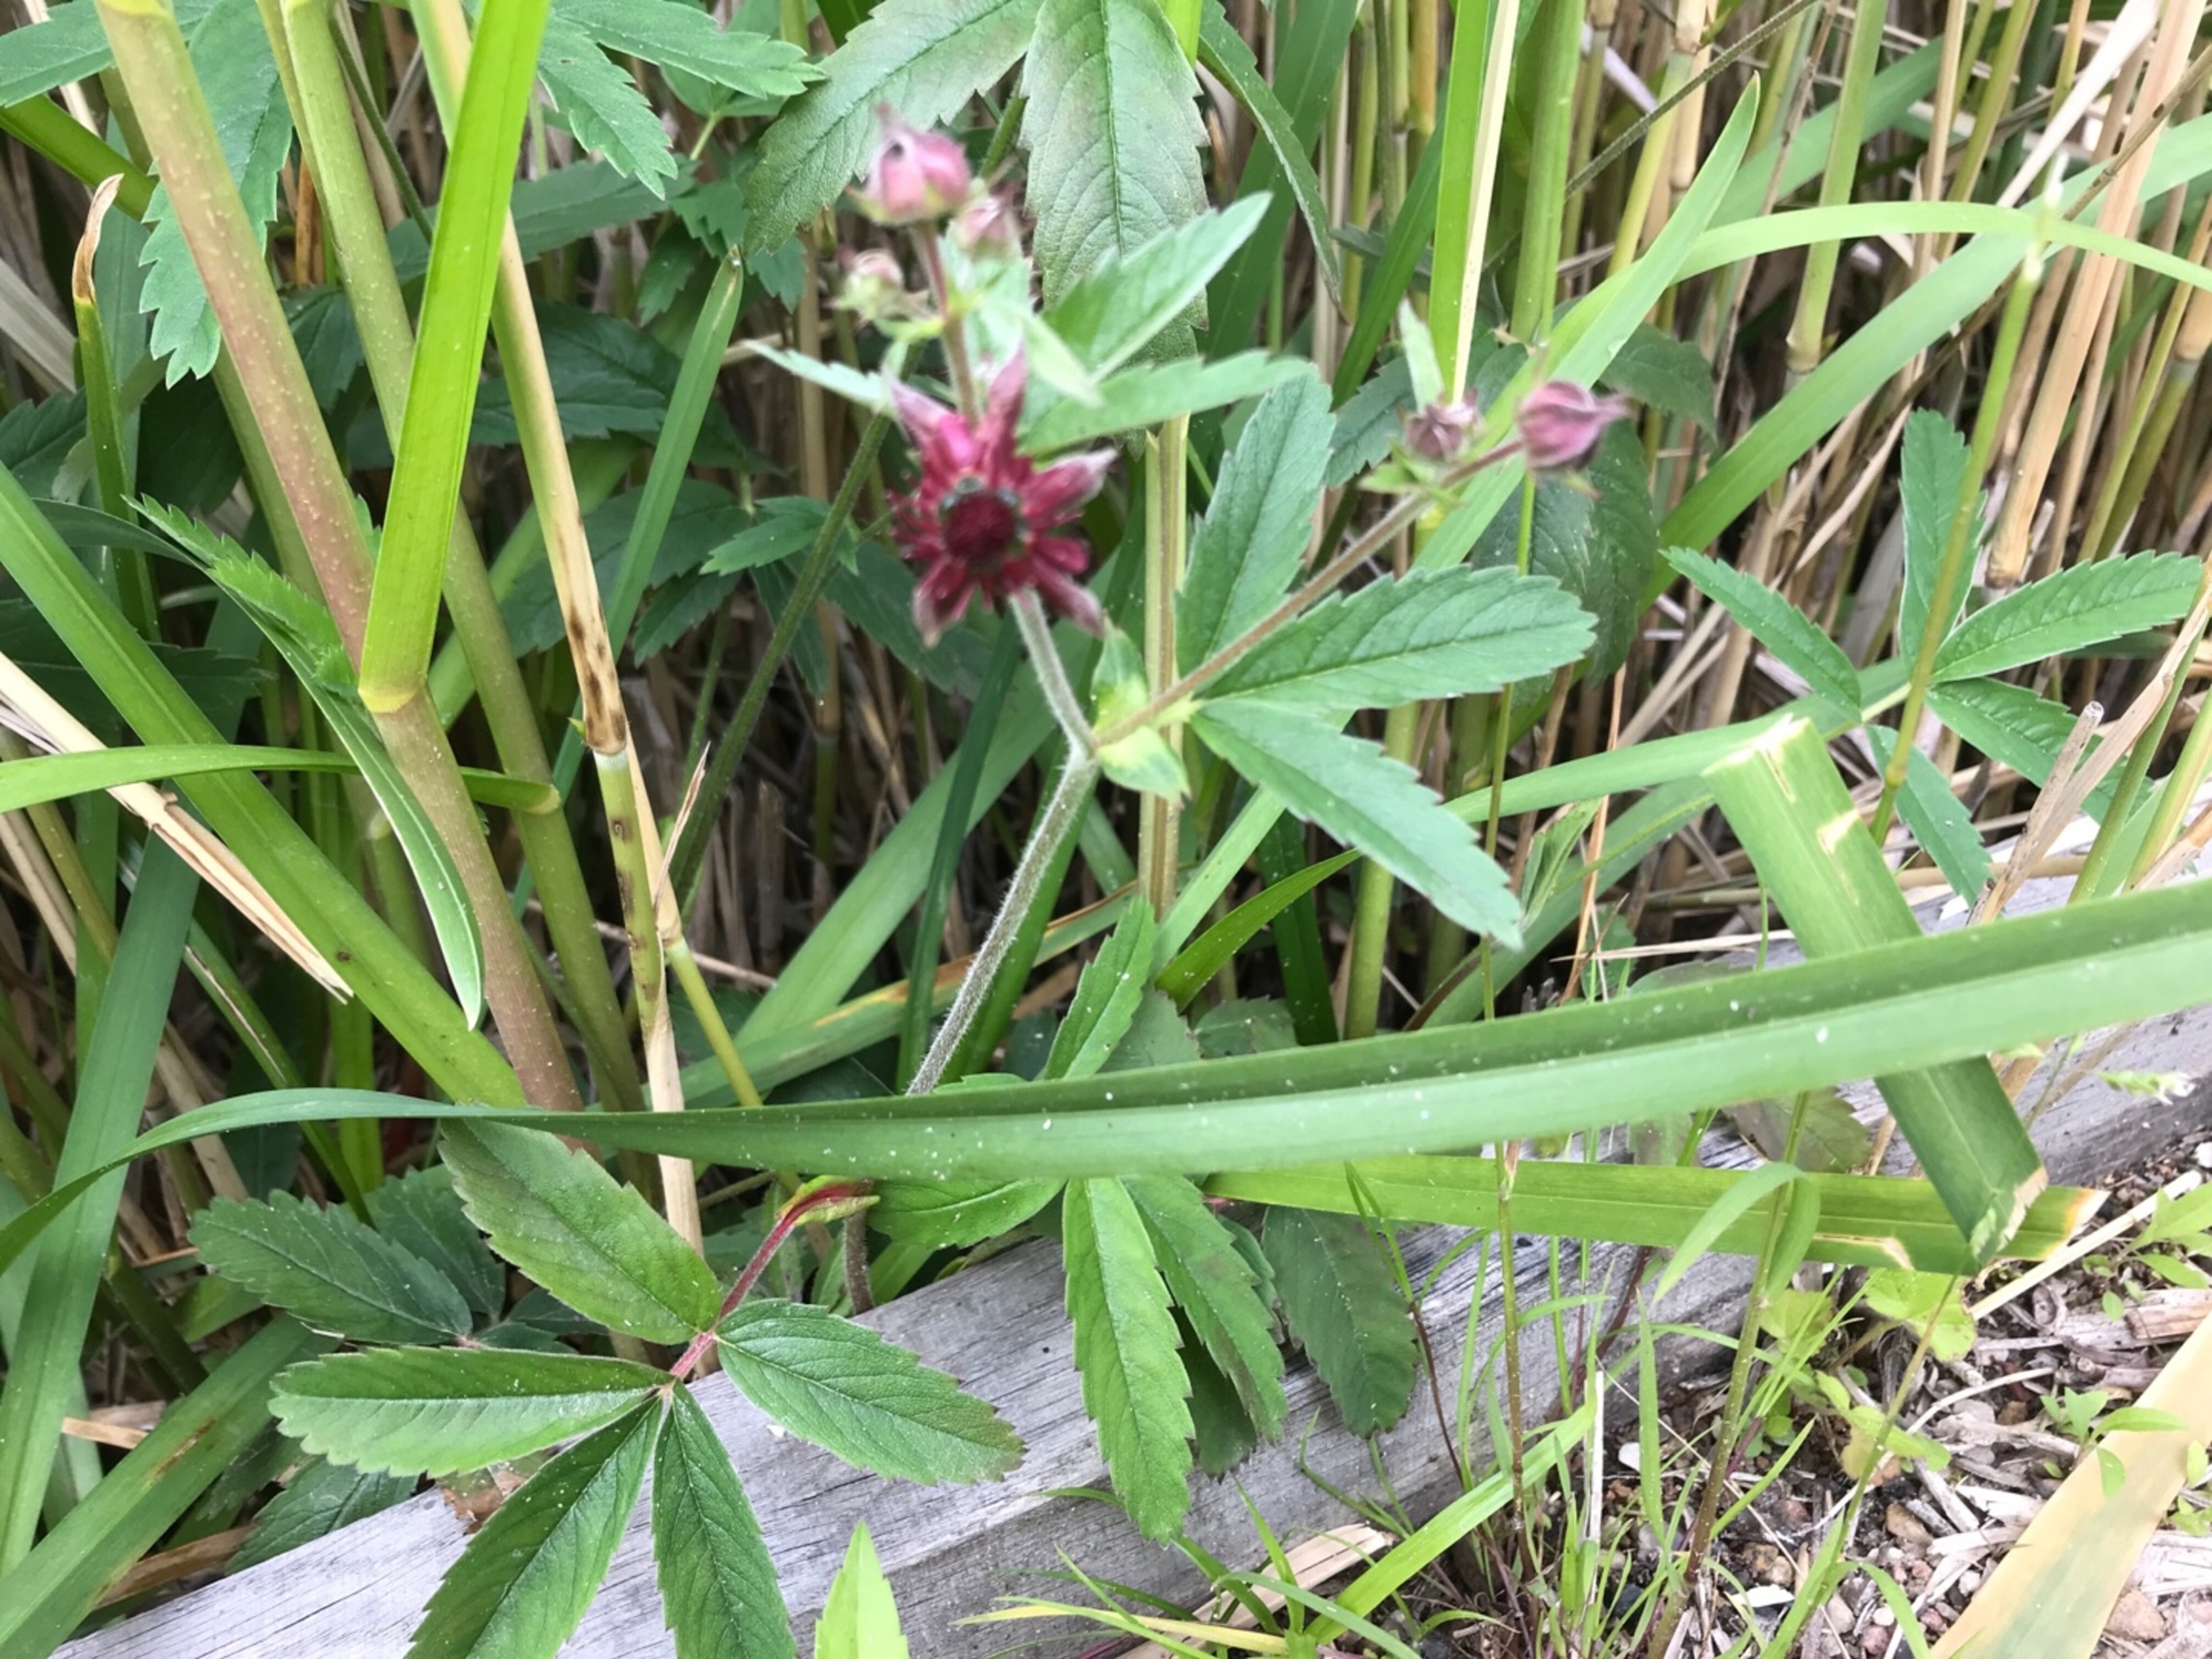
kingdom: Plantae
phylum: Tracheophyta
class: Magnoliopsida
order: Rosales
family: Rosaceae
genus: Comarum
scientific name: Comarum palustre
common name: Kragefod
